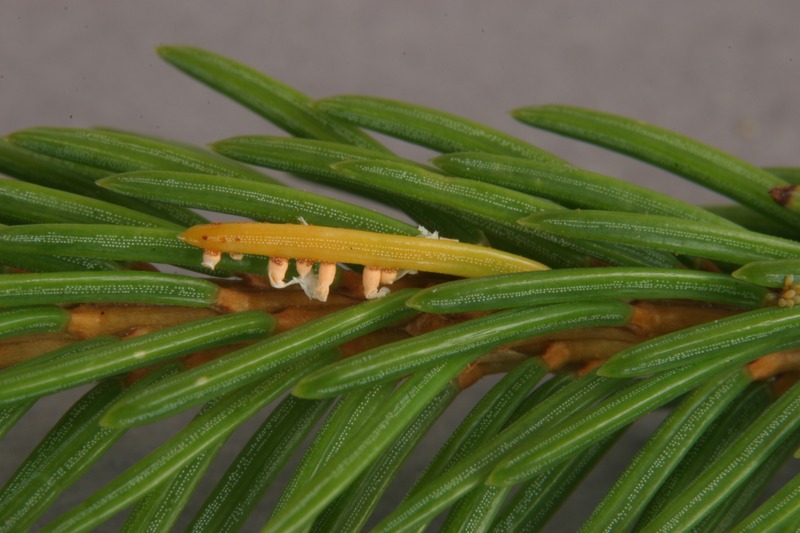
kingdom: Fungi
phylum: Basidiomycota
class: Pucciniomycetes
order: Pucciniales
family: Coleosporiaceae
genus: Chrysomyxa
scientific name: Chrysomyxa rhododendri
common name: Rhododendron-spruce needle rust
